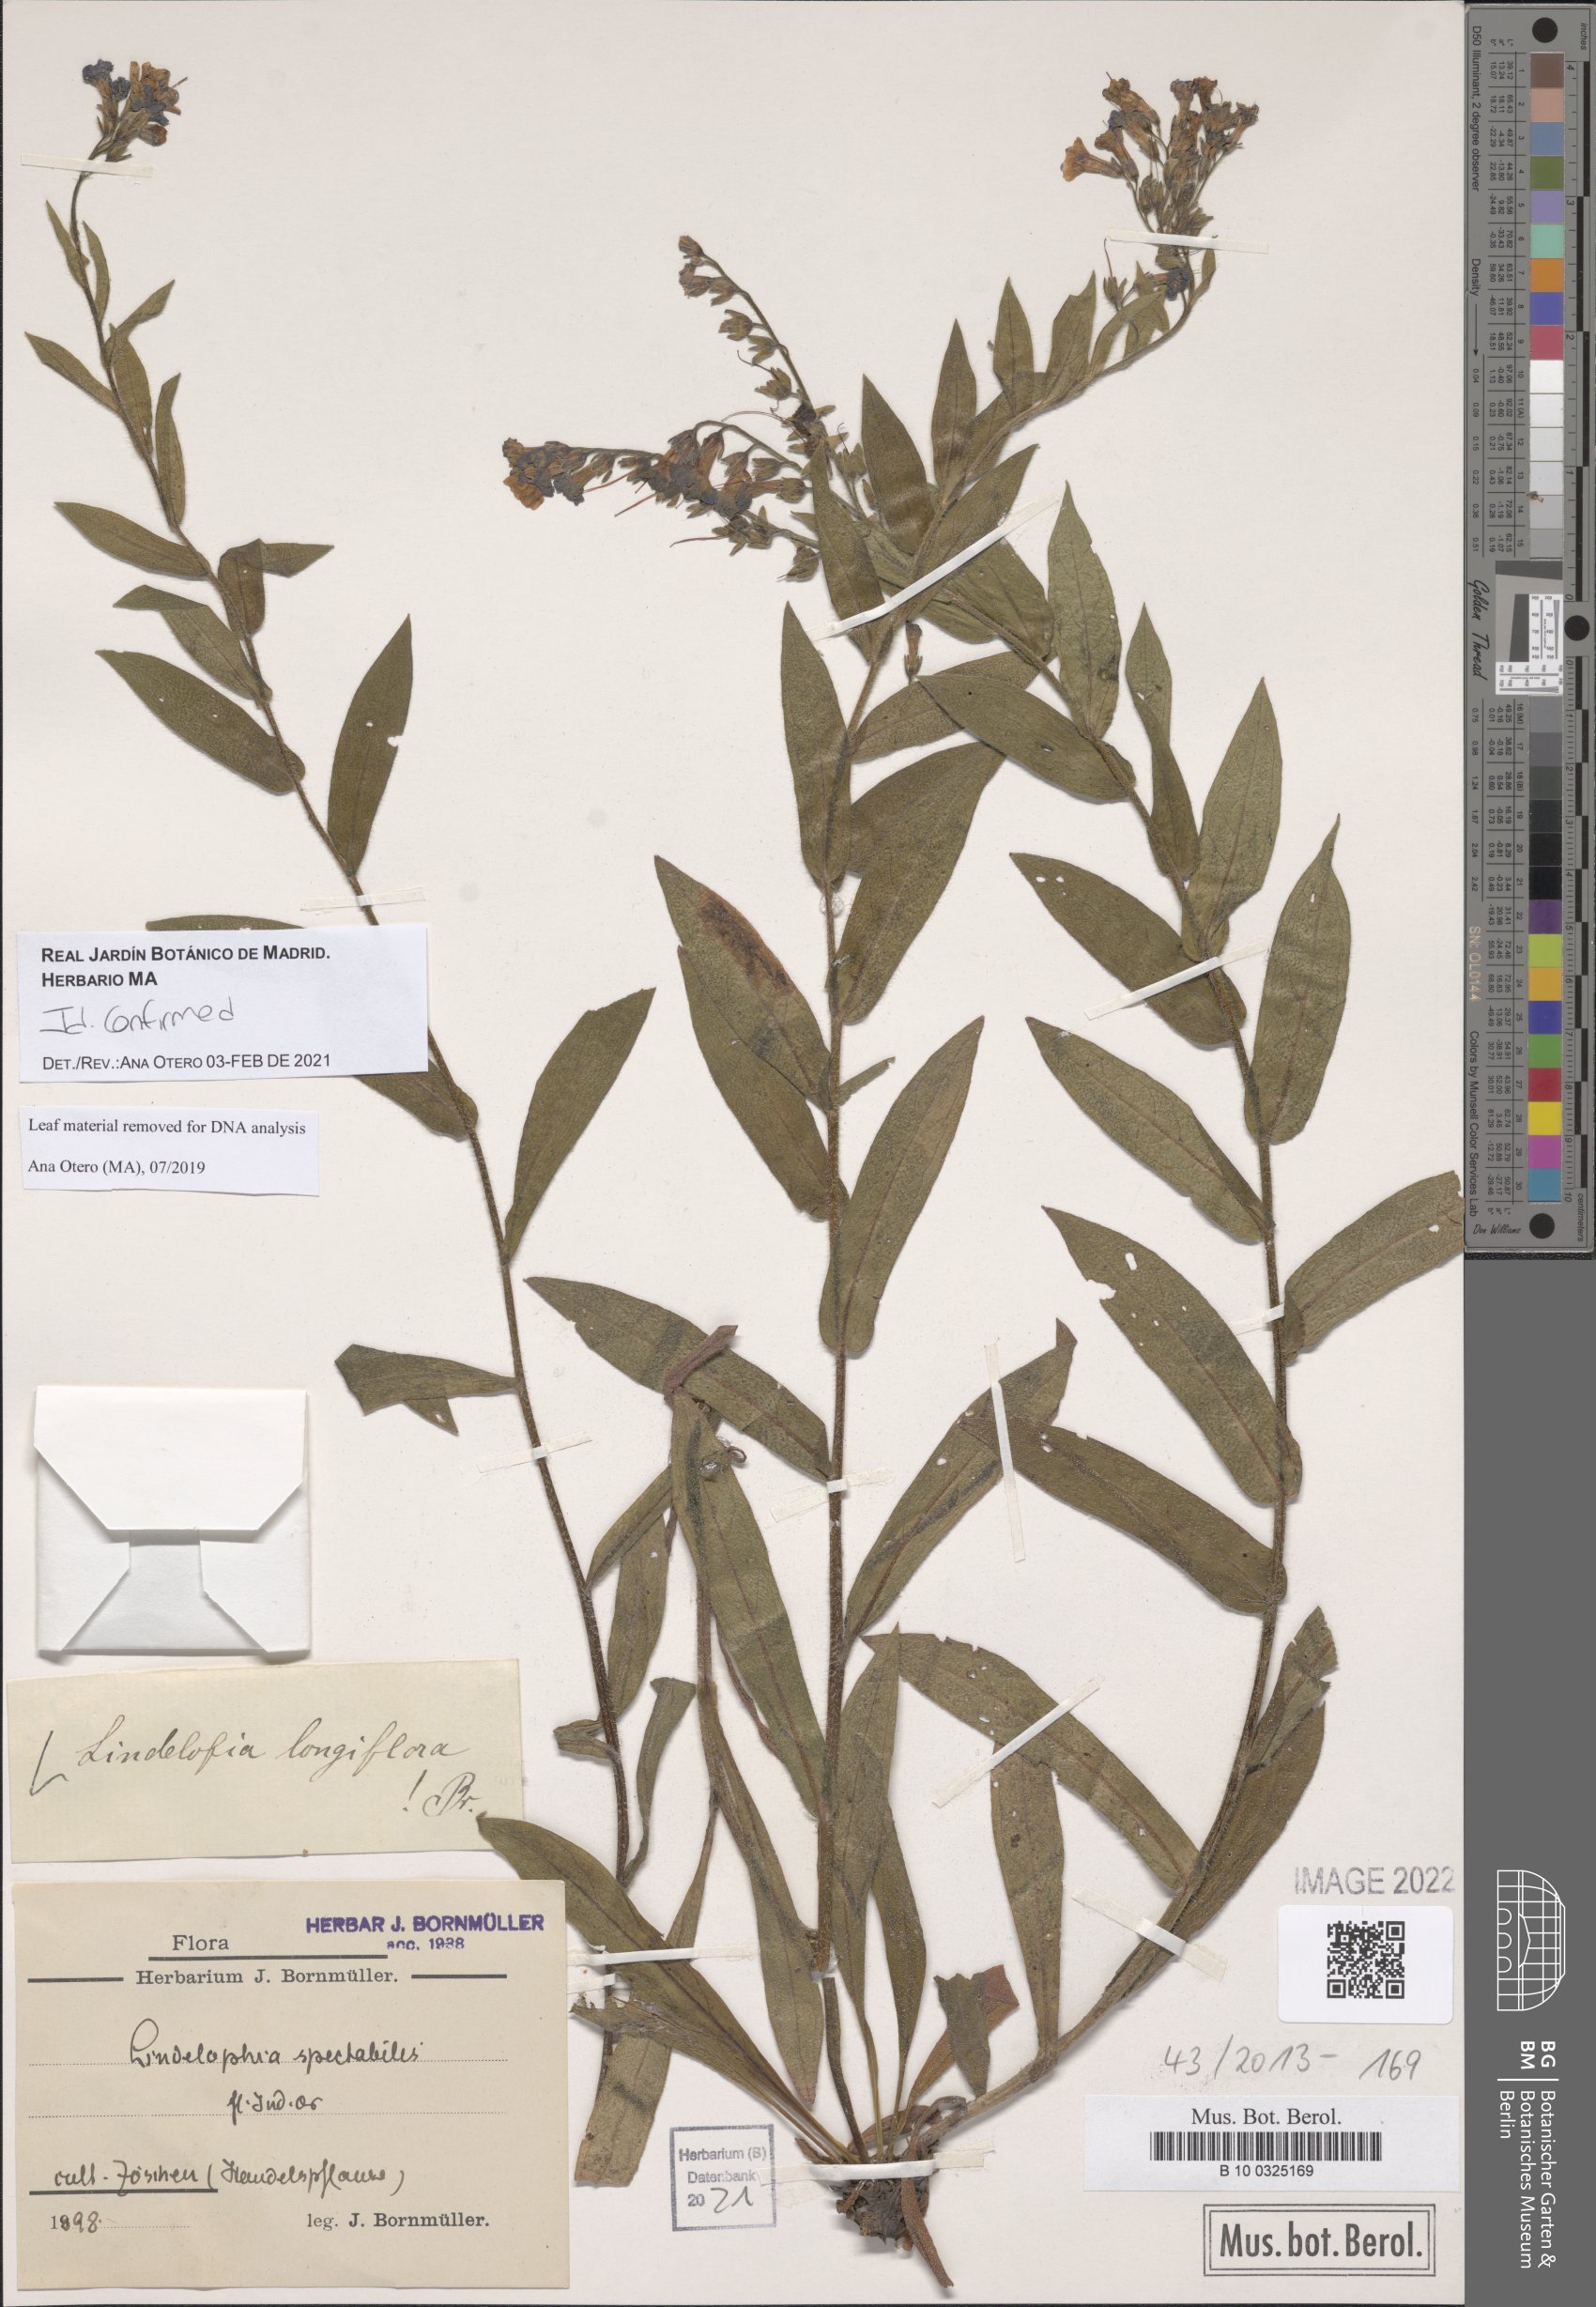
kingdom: Plantae
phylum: Tracheophyta
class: Magnoliopsida
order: Boraginales
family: Boraginaceae
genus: Lindelofia
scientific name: Lindelofia longiflora
